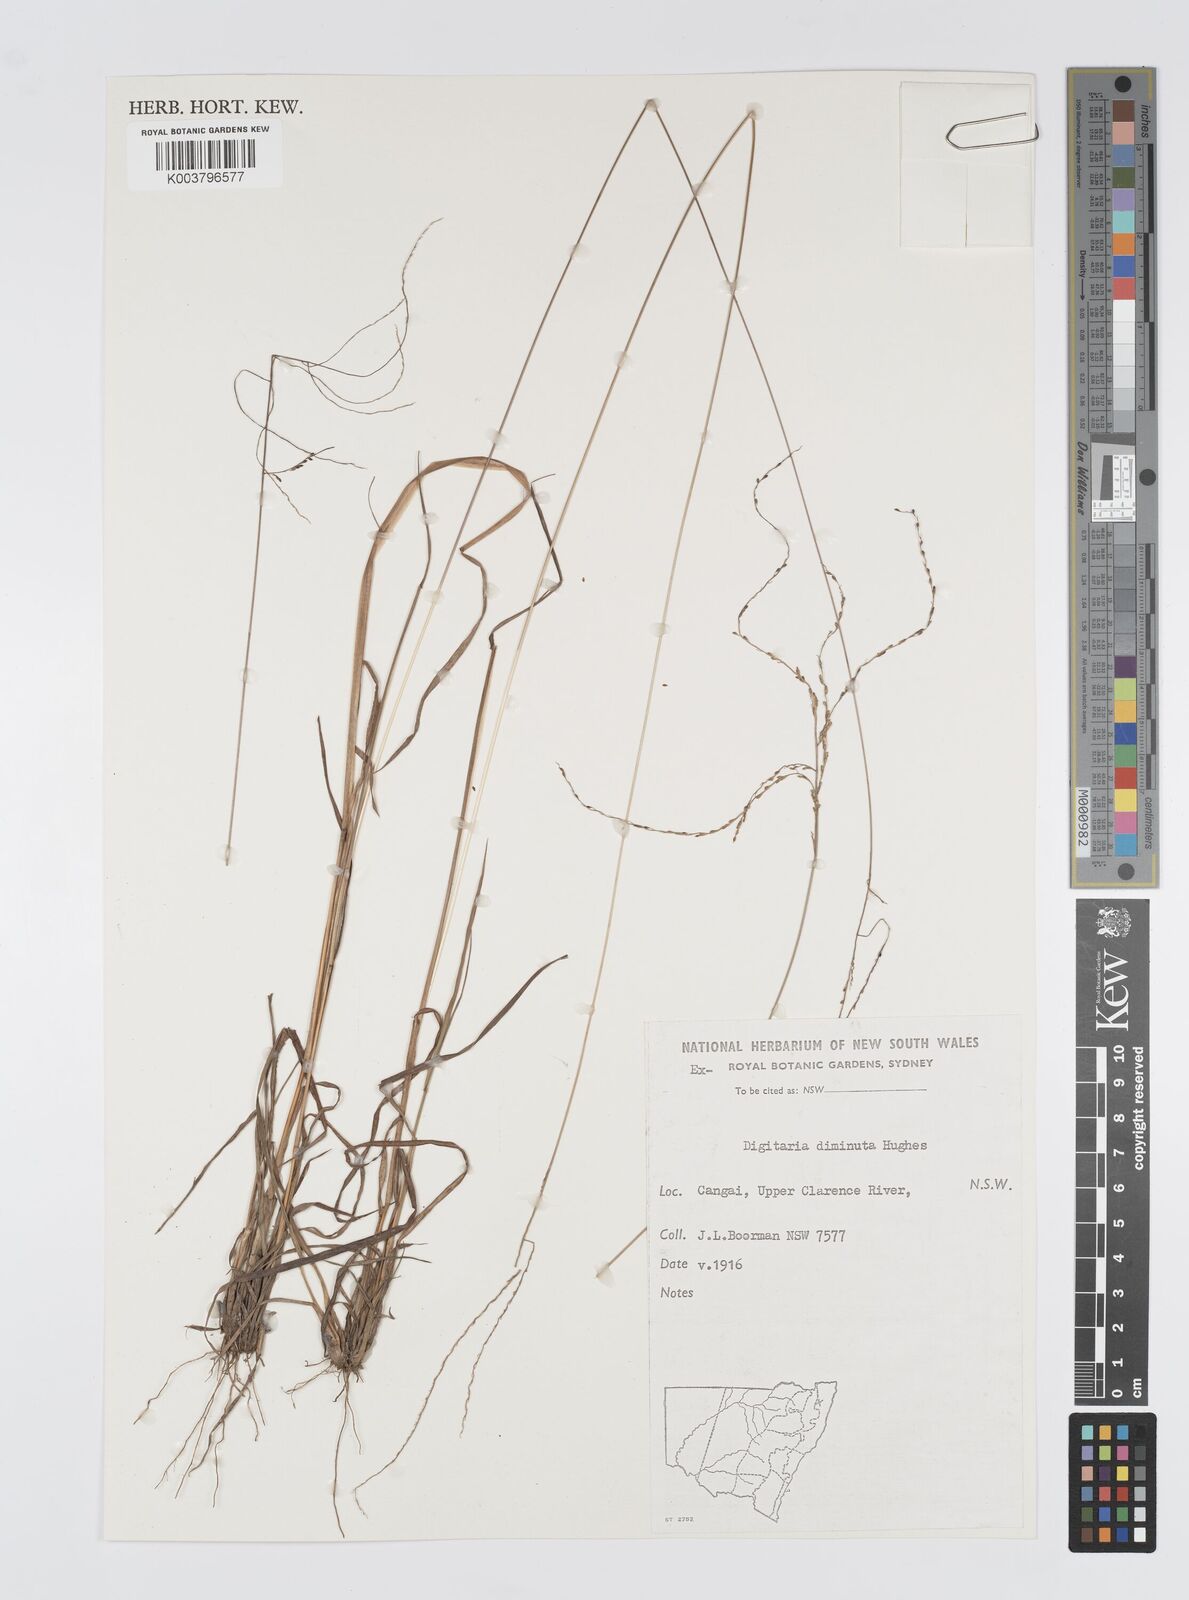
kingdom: Plantae
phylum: Tracheophyta
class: Liliopsida
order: Poales
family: Poaceae
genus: Digitaria
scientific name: Digitaria breviglumis
